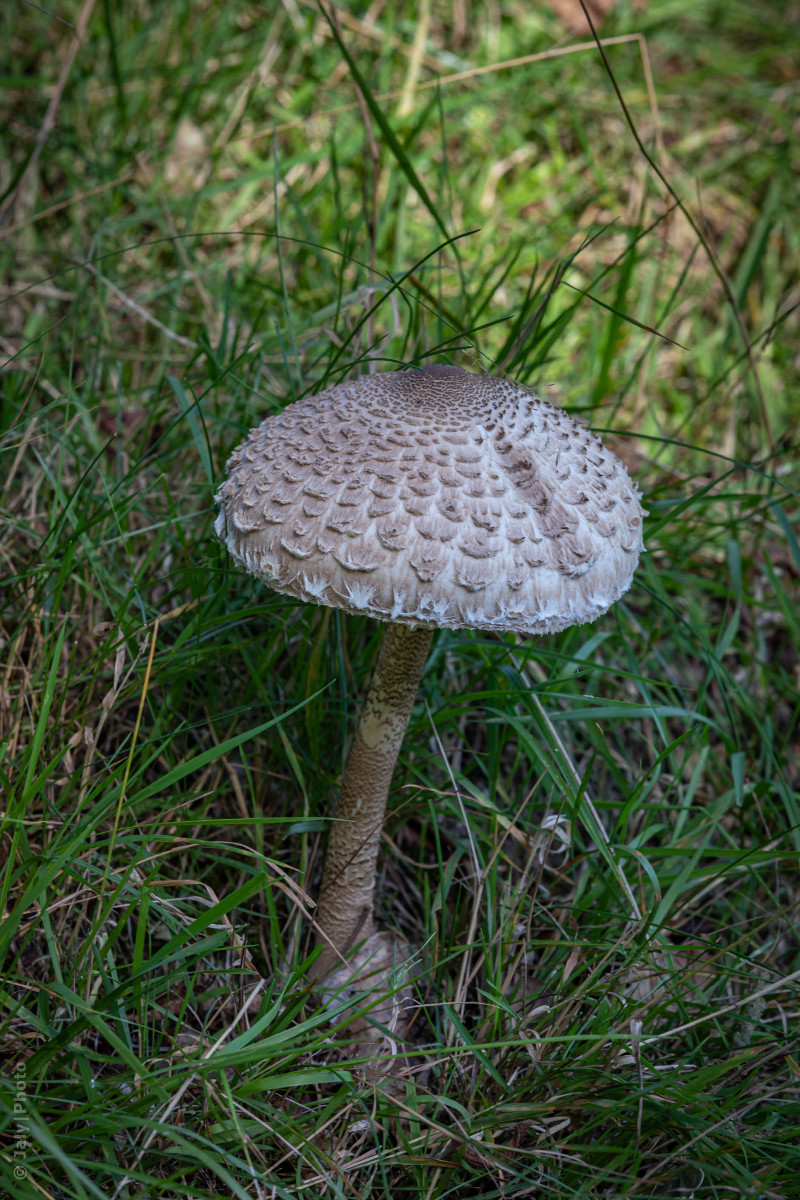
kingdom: Fungi
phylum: Basidiomycota
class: Agaricomycetes
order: Agaricales
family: Agaricaceae
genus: Macrolepiota
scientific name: Macrolepiota procera
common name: stor kæmpeparasolhat
